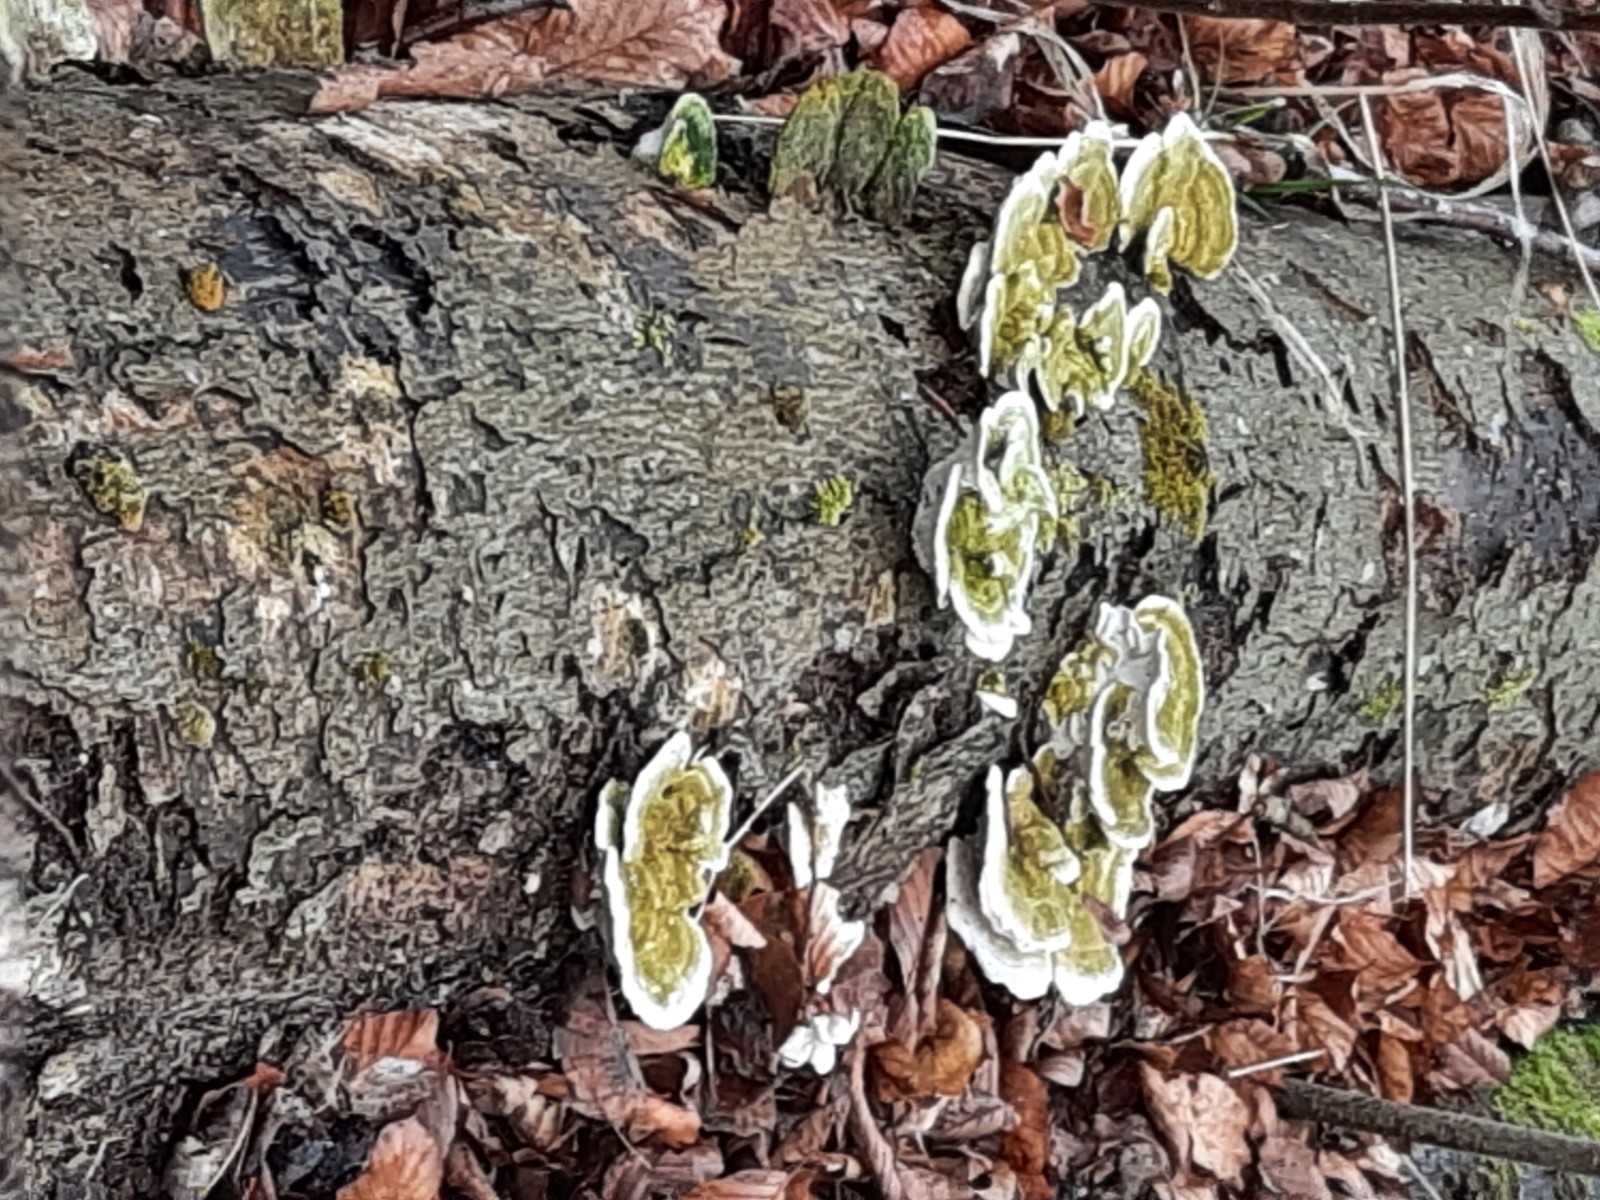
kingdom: Fungi
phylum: Basidiomycota
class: Agaricomycetes
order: Polyporales
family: Polyporaceae
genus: Trametes
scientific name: Trametes gibbosa
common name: puklet læderporesvamp
